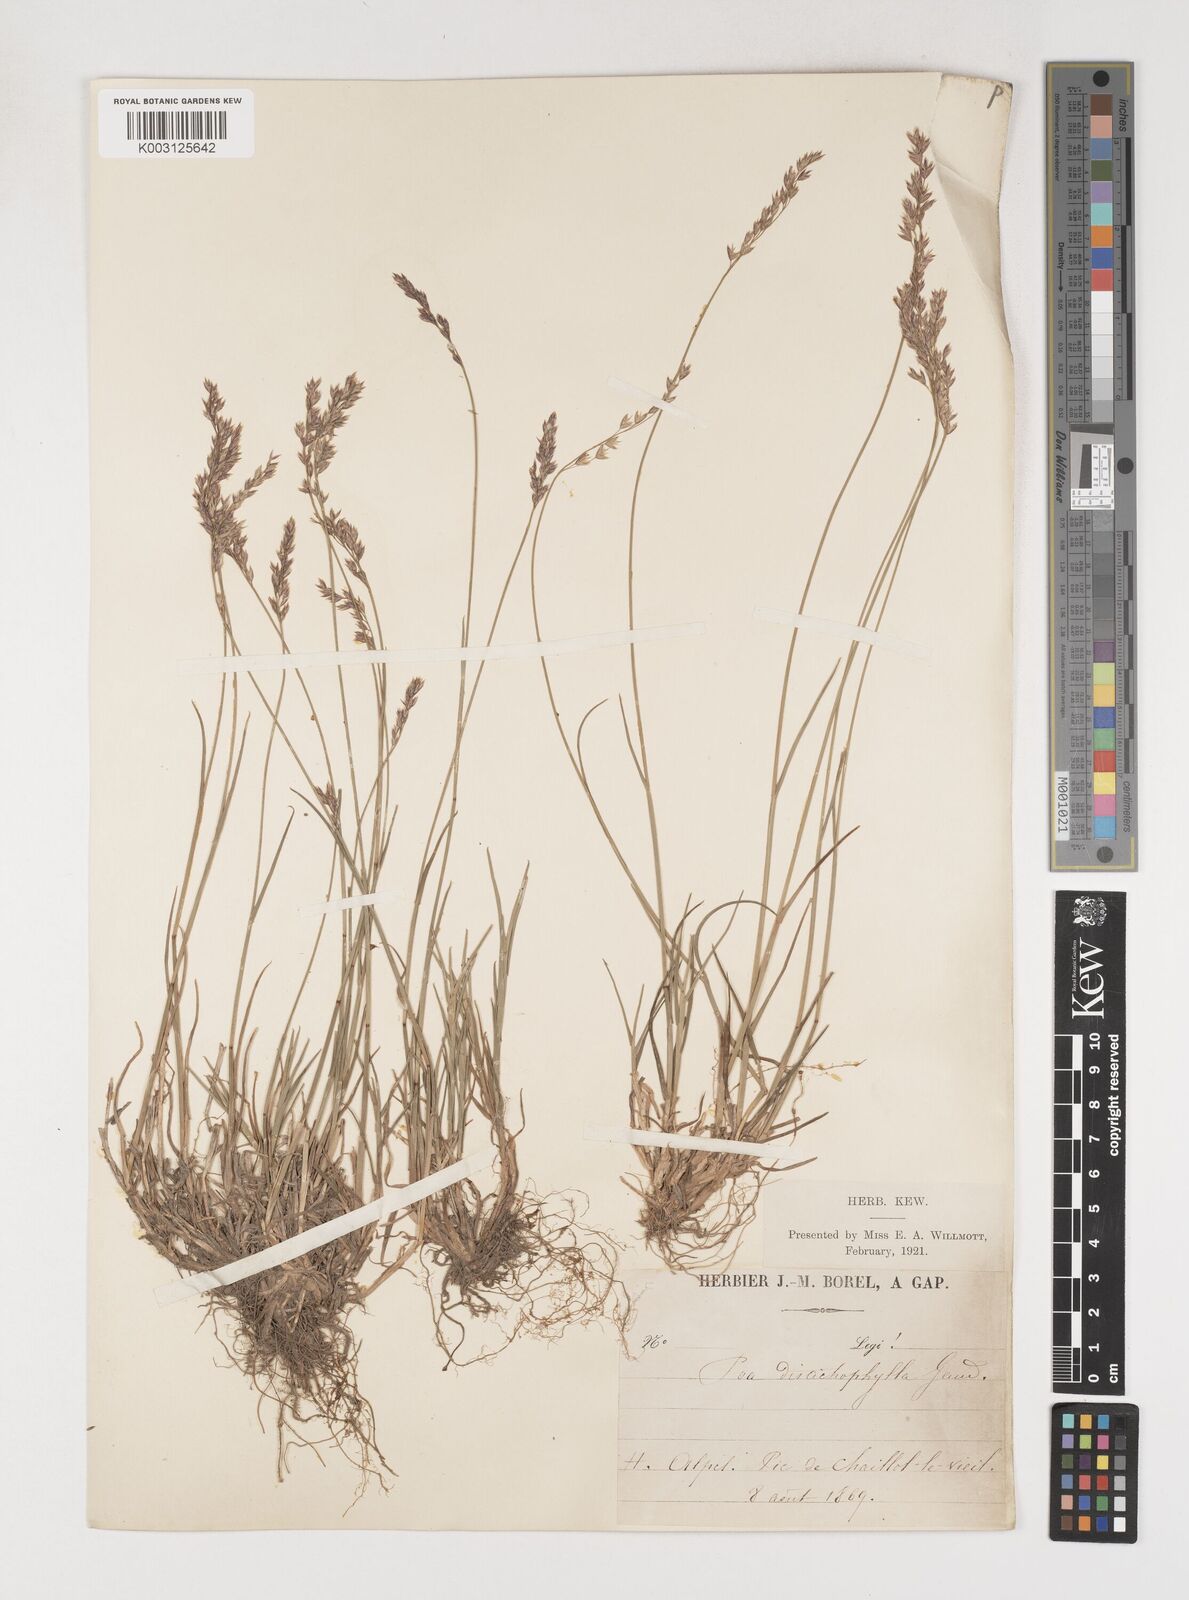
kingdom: Plantae
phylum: Tracheophyta
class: Liliopsida
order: Poales
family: Poaceae
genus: Poa
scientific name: Poa
